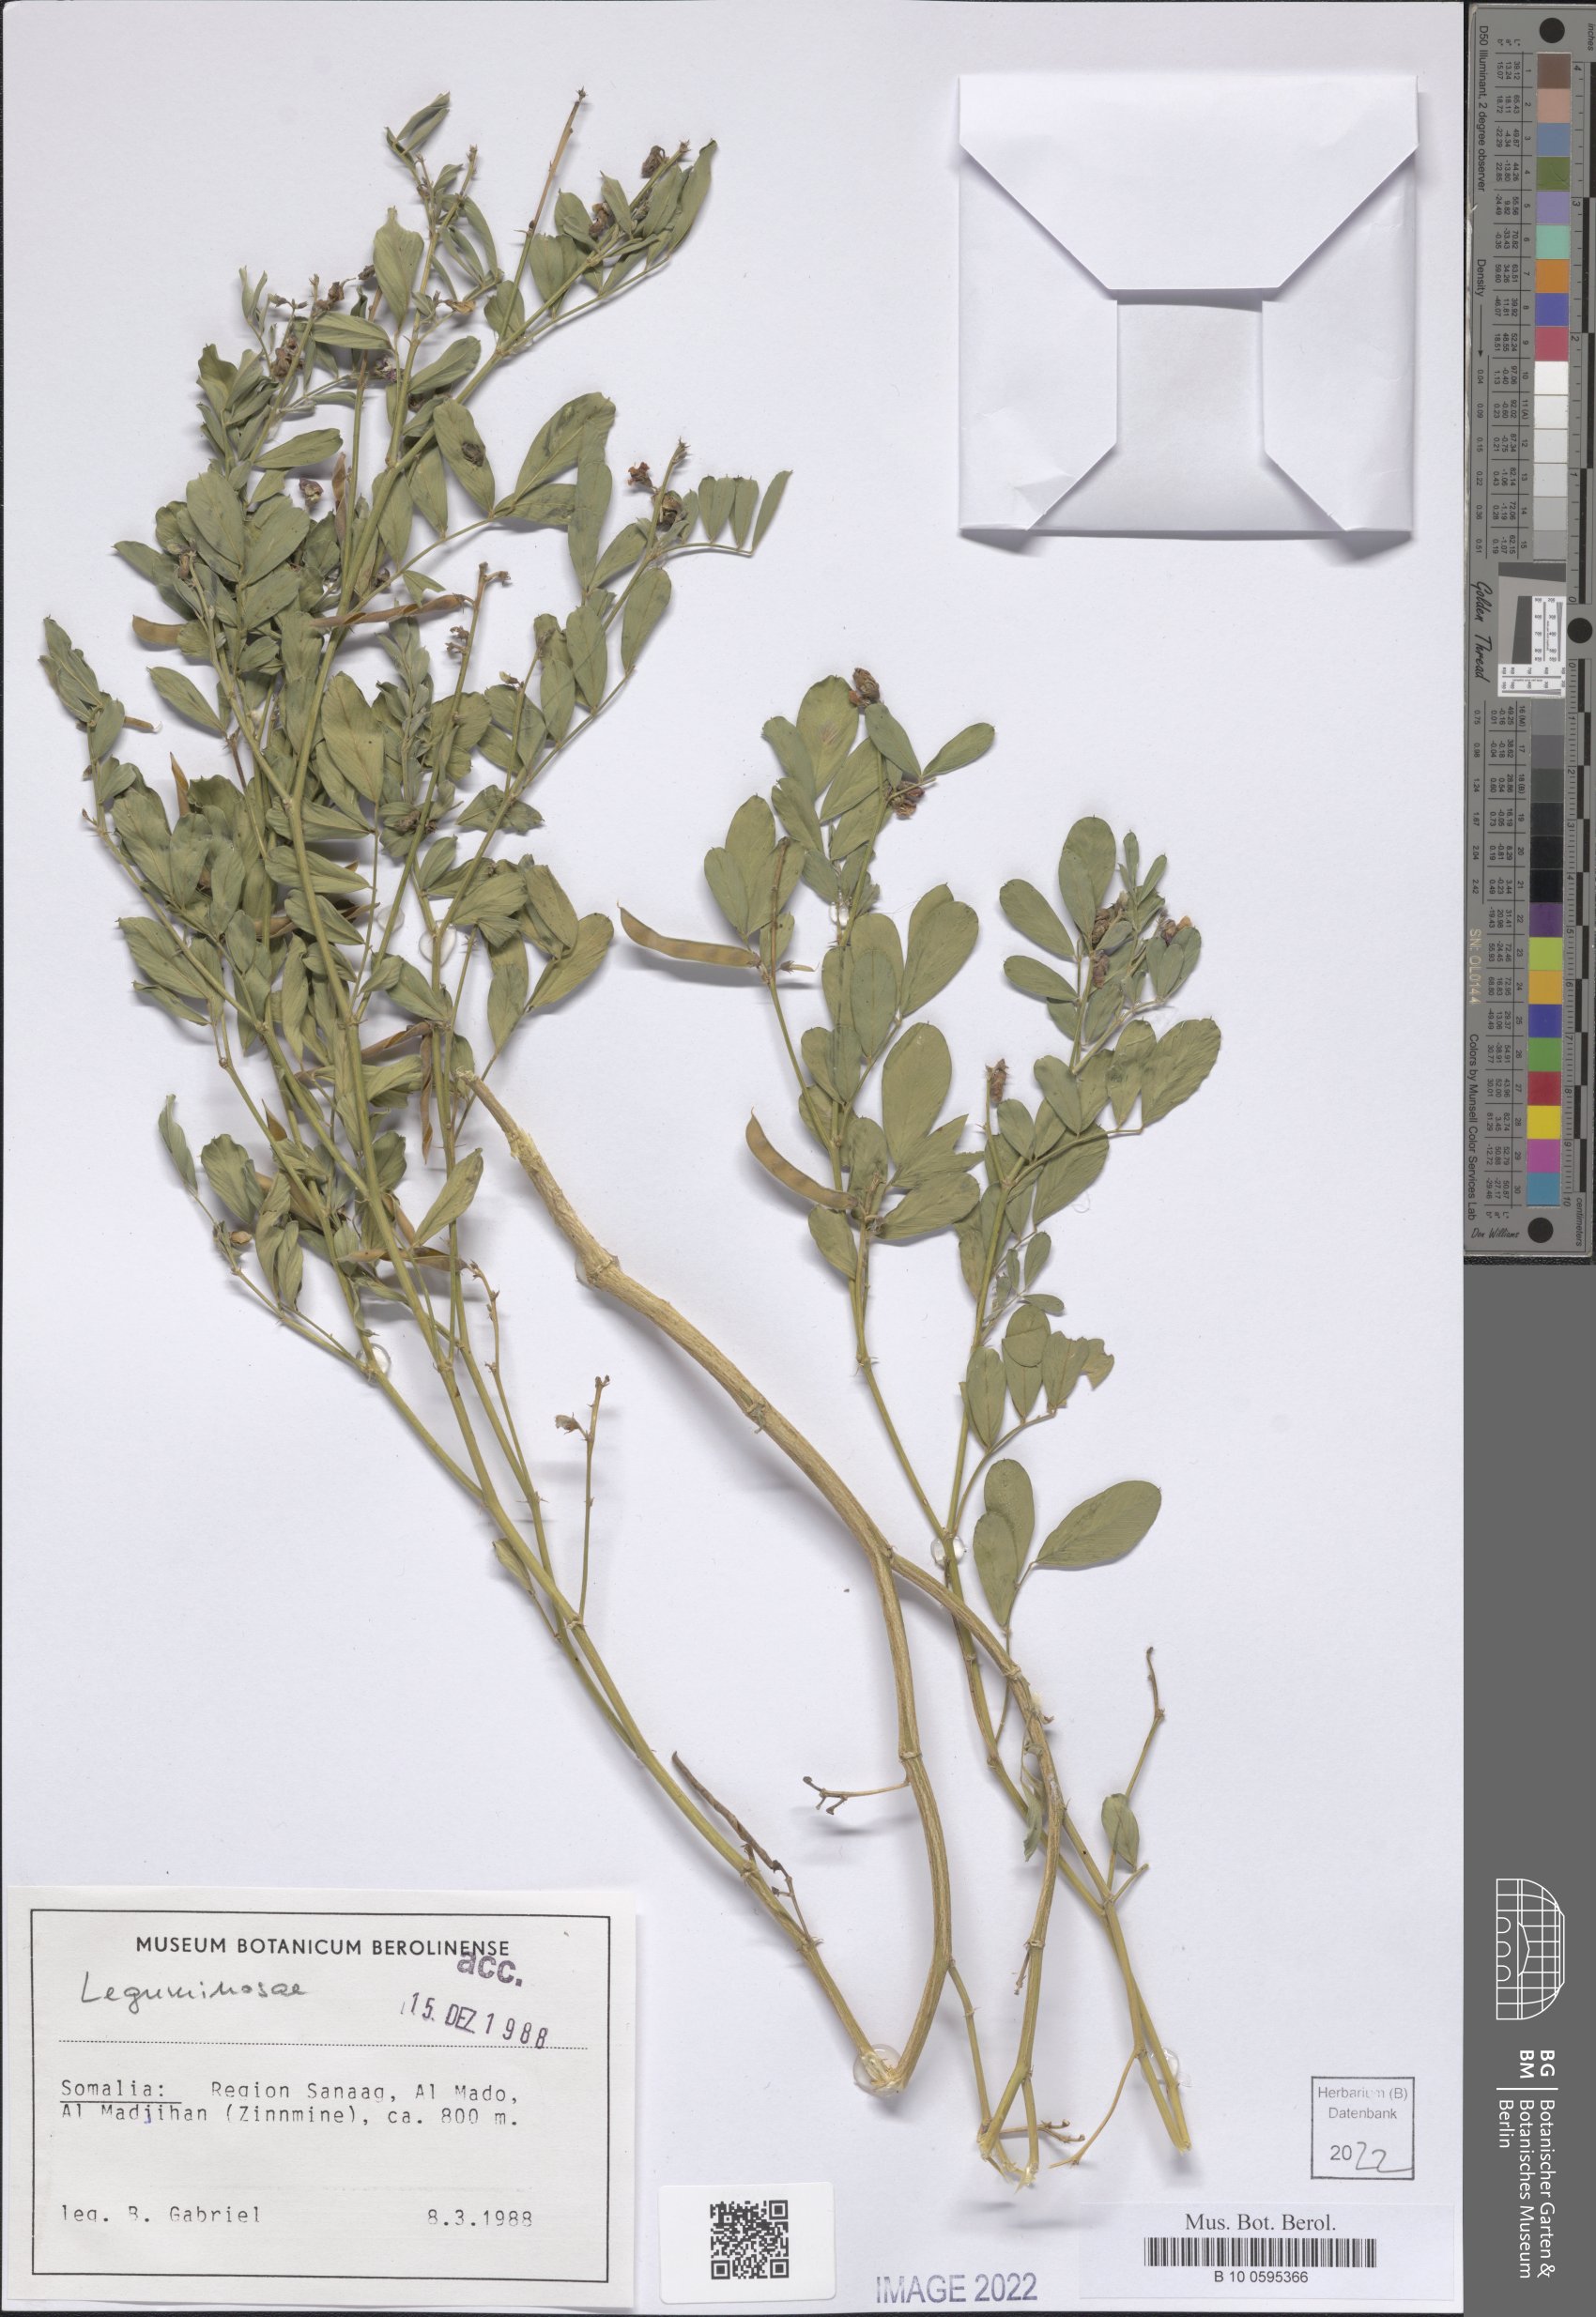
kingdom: Plantae
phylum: Tracheophyta
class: Magnoliopsida
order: Fabales
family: Fabaceae
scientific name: Fabaceae
